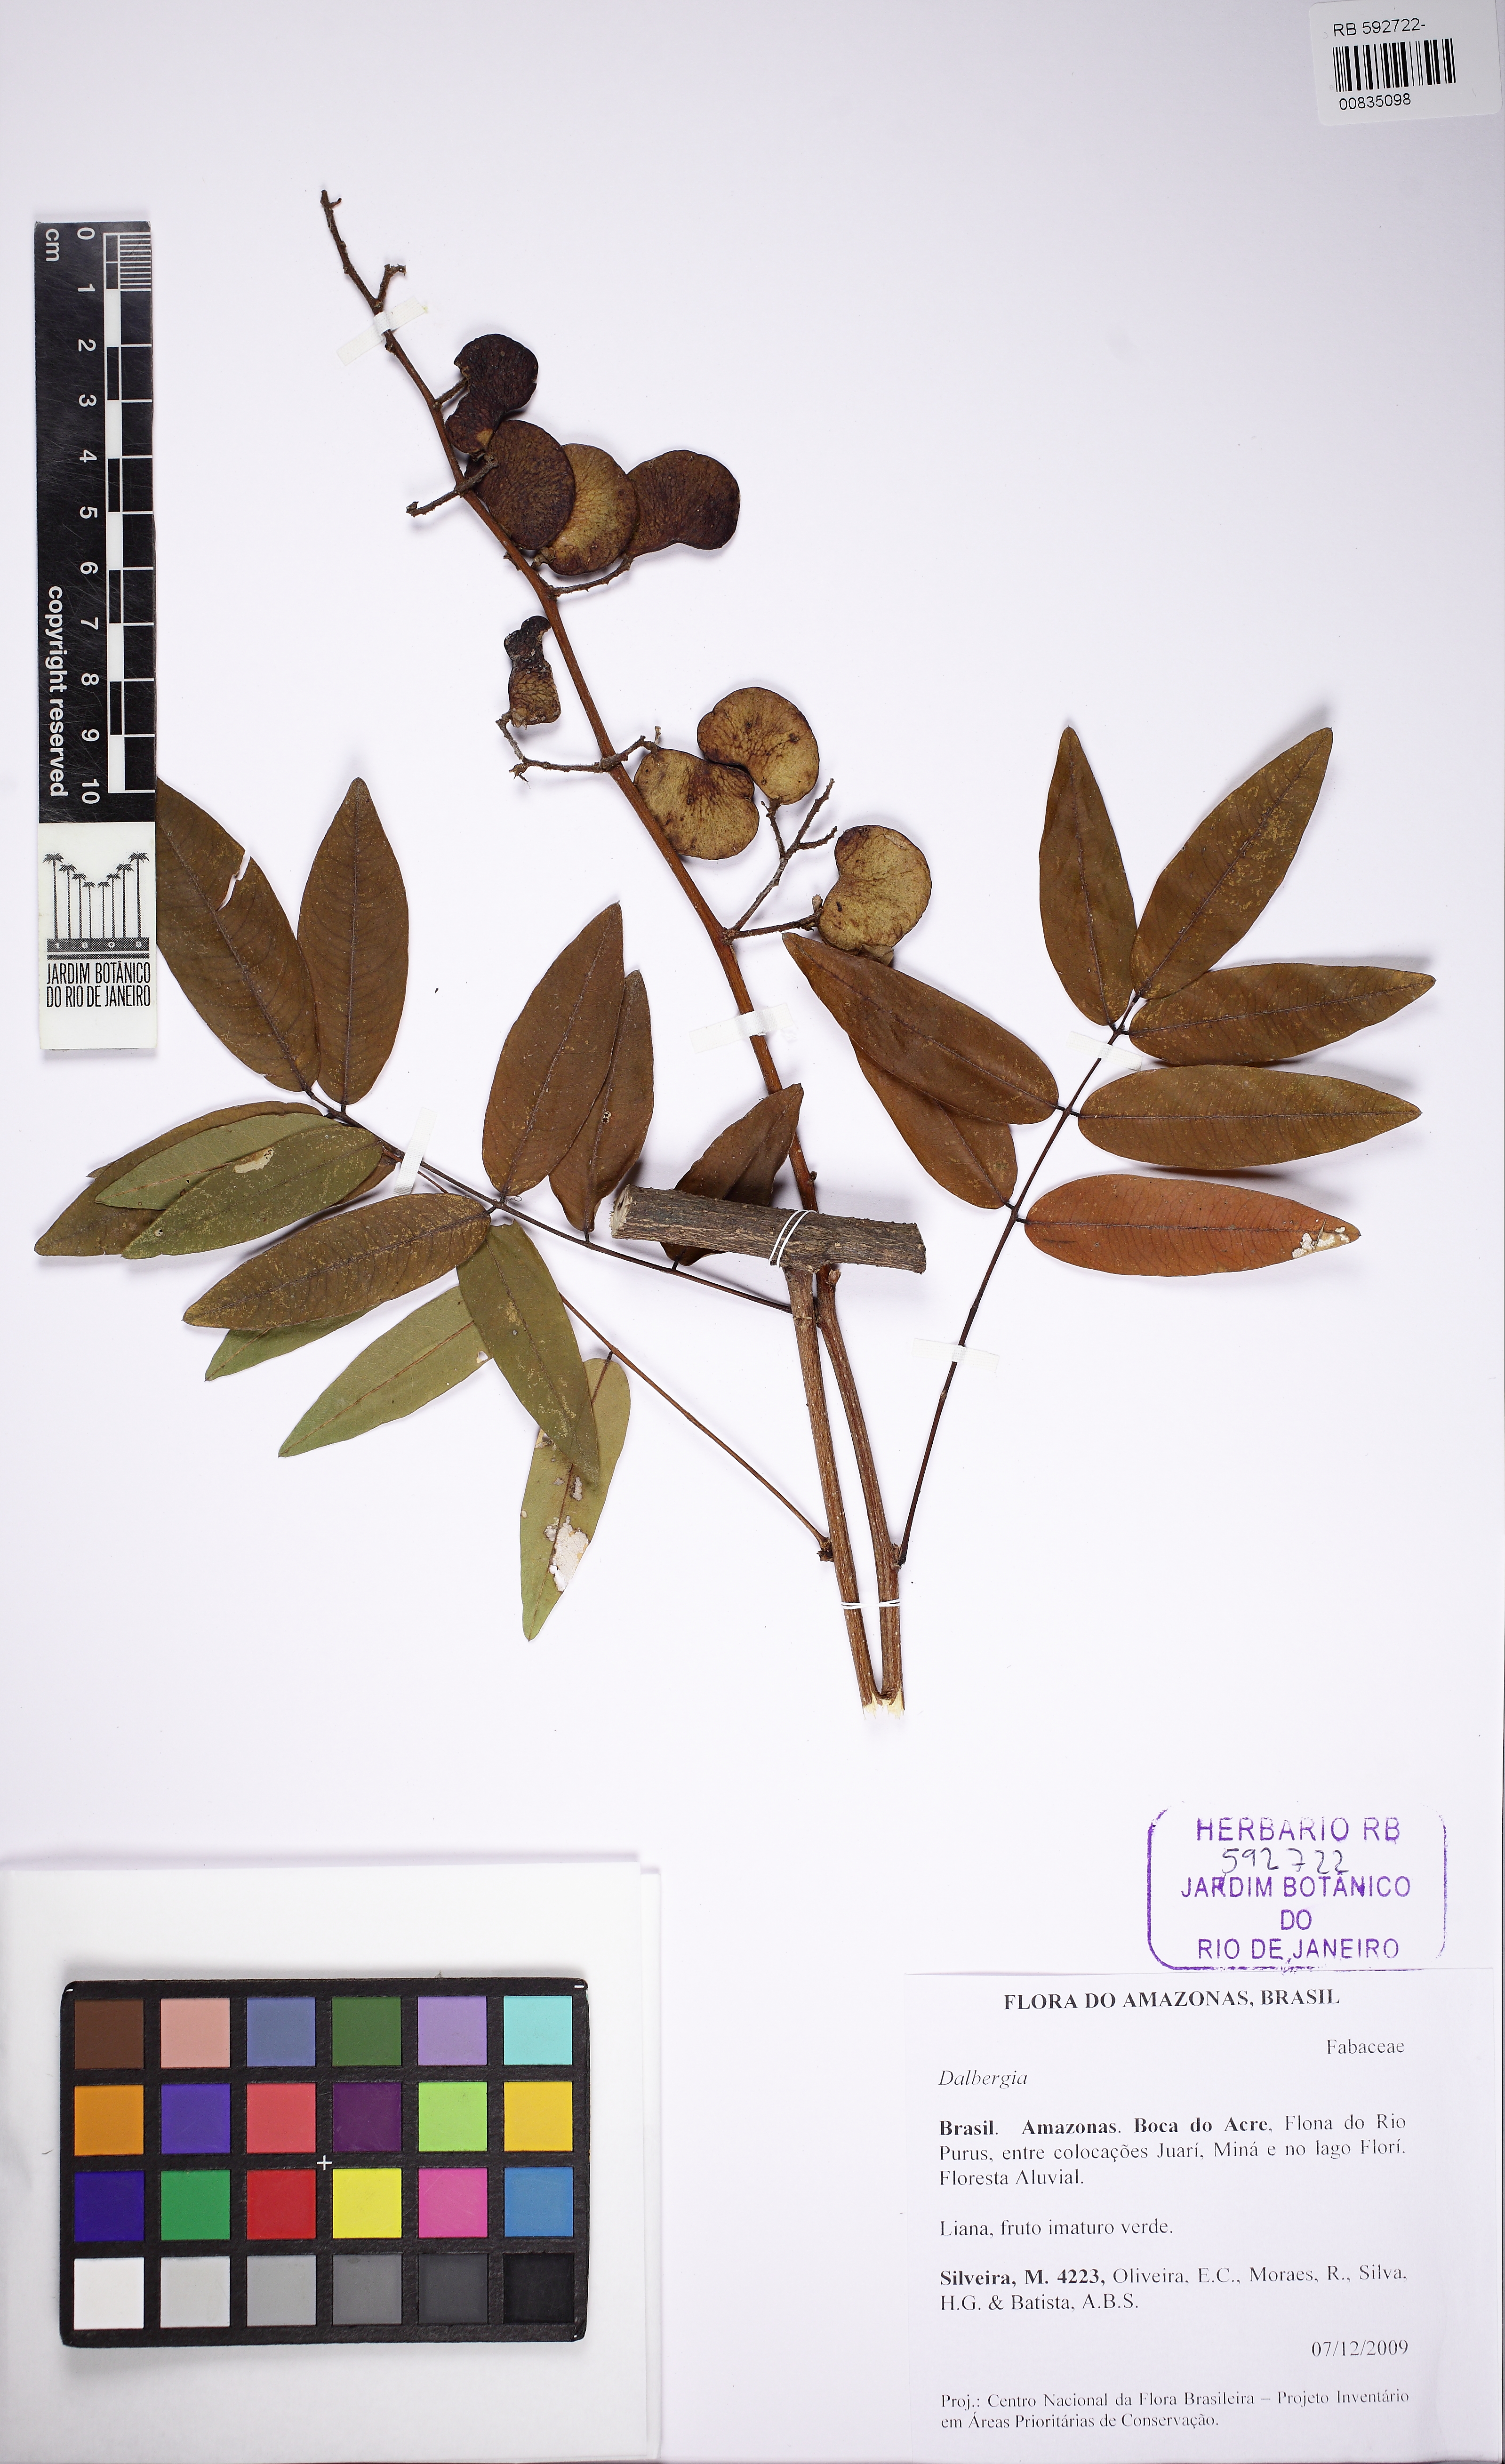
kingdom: Plantae
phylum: Tracheophyta
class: Magnoliopsida
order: Fabales
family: Fabaceae
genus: Dalbergia
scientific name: Dalbergia
